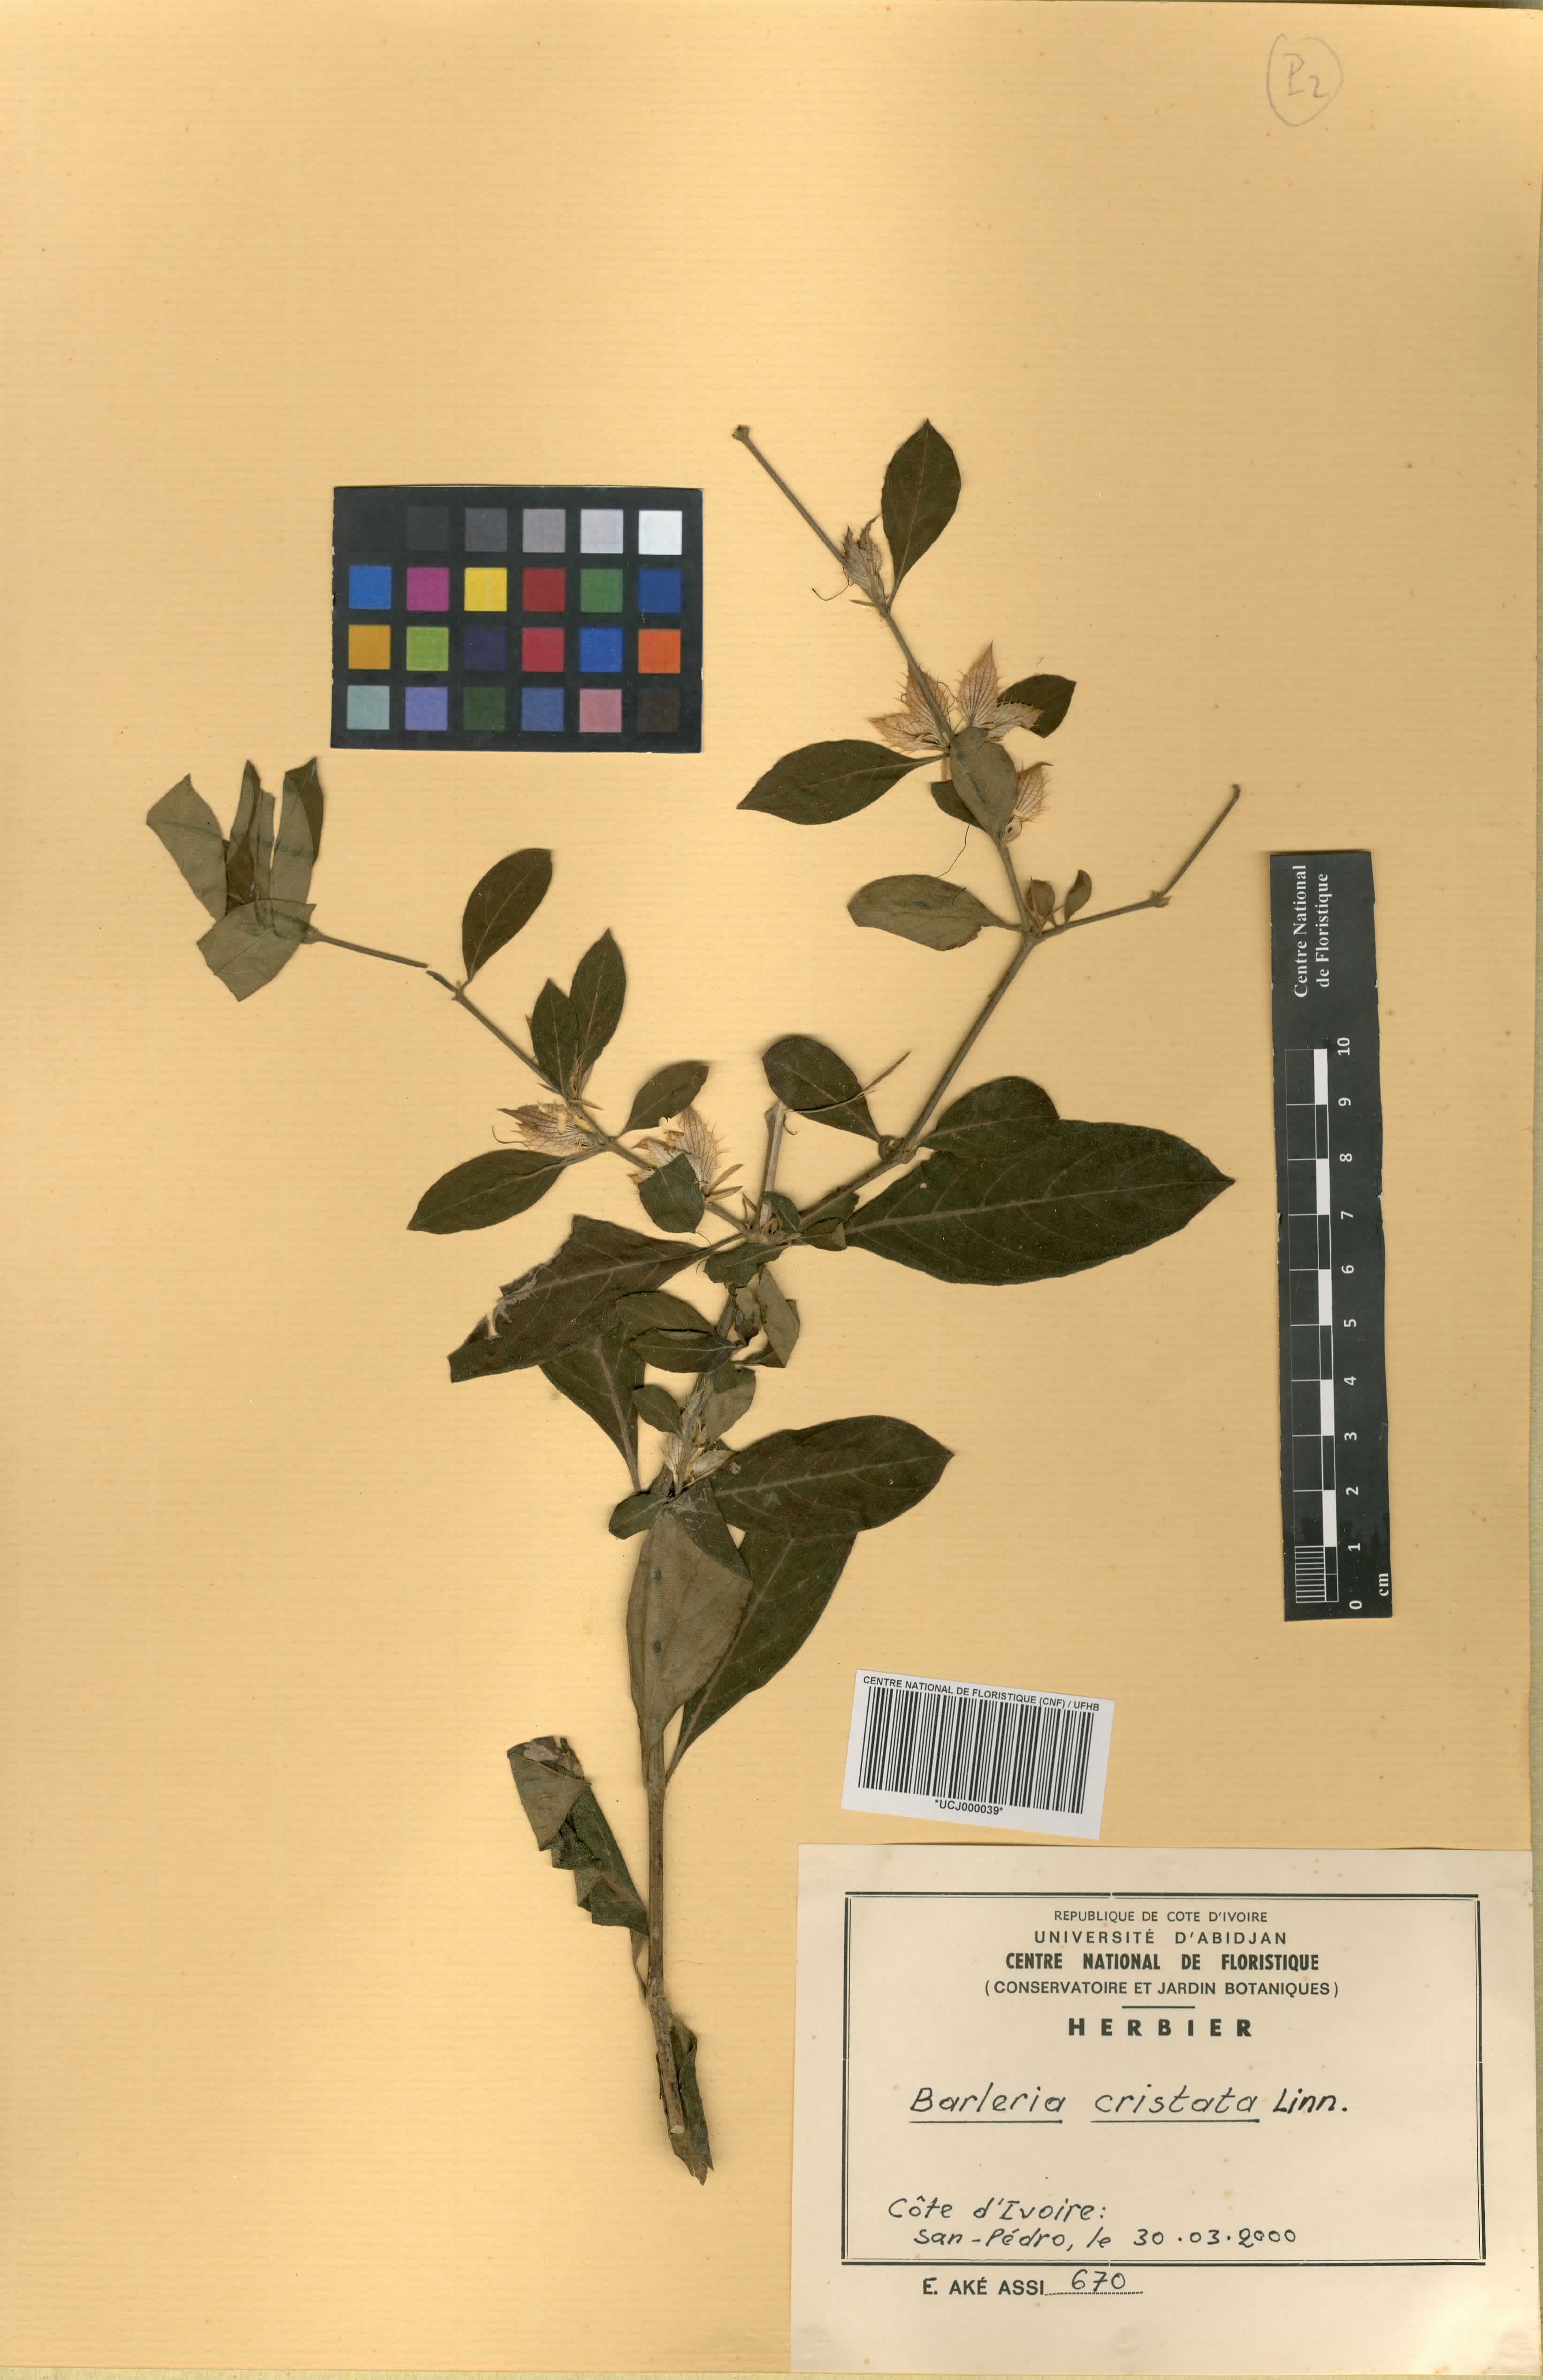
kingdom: Plantae
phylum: Tracheophyta
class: Magnoliopsida
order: Lamiales
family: Acanthaceae
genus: Barleria
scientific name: Barleria cristata
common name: Crested philippine violet
